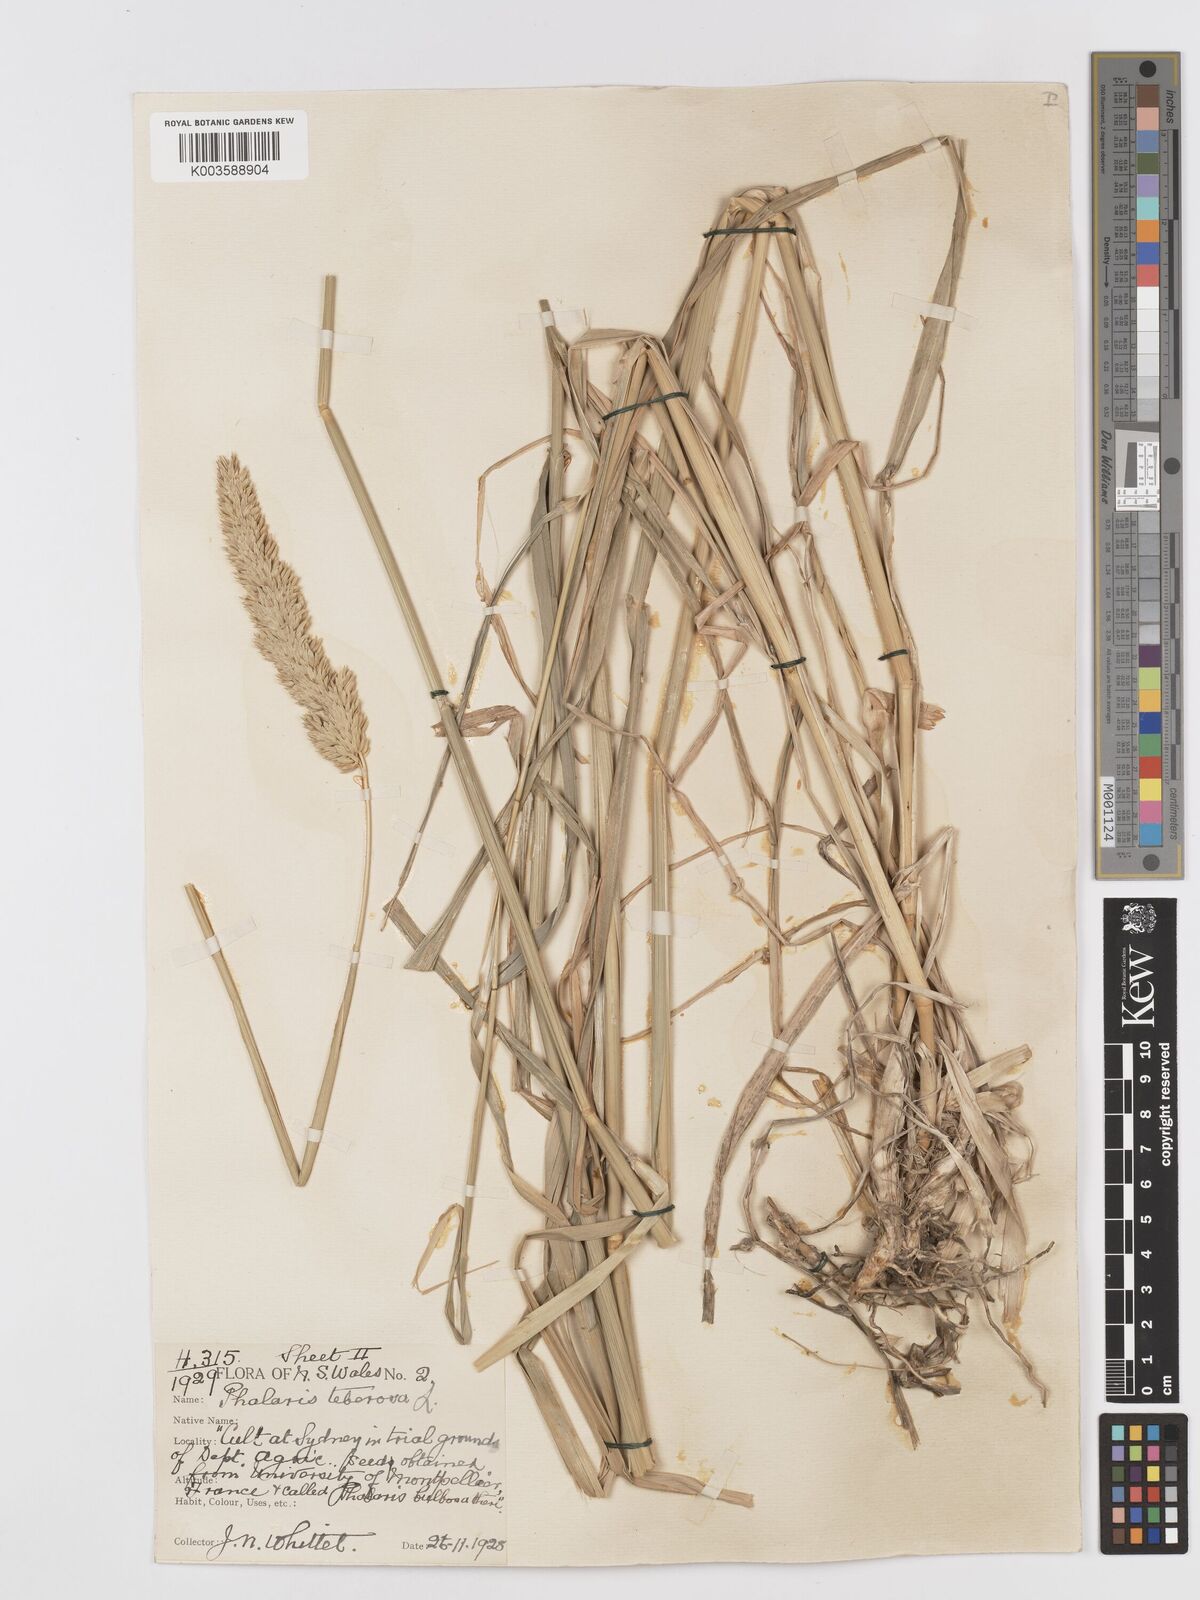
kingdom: Plantae
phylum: Tracheophyta
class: Liliopsida
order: Poales
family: Poaceae
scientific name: Poaceae
